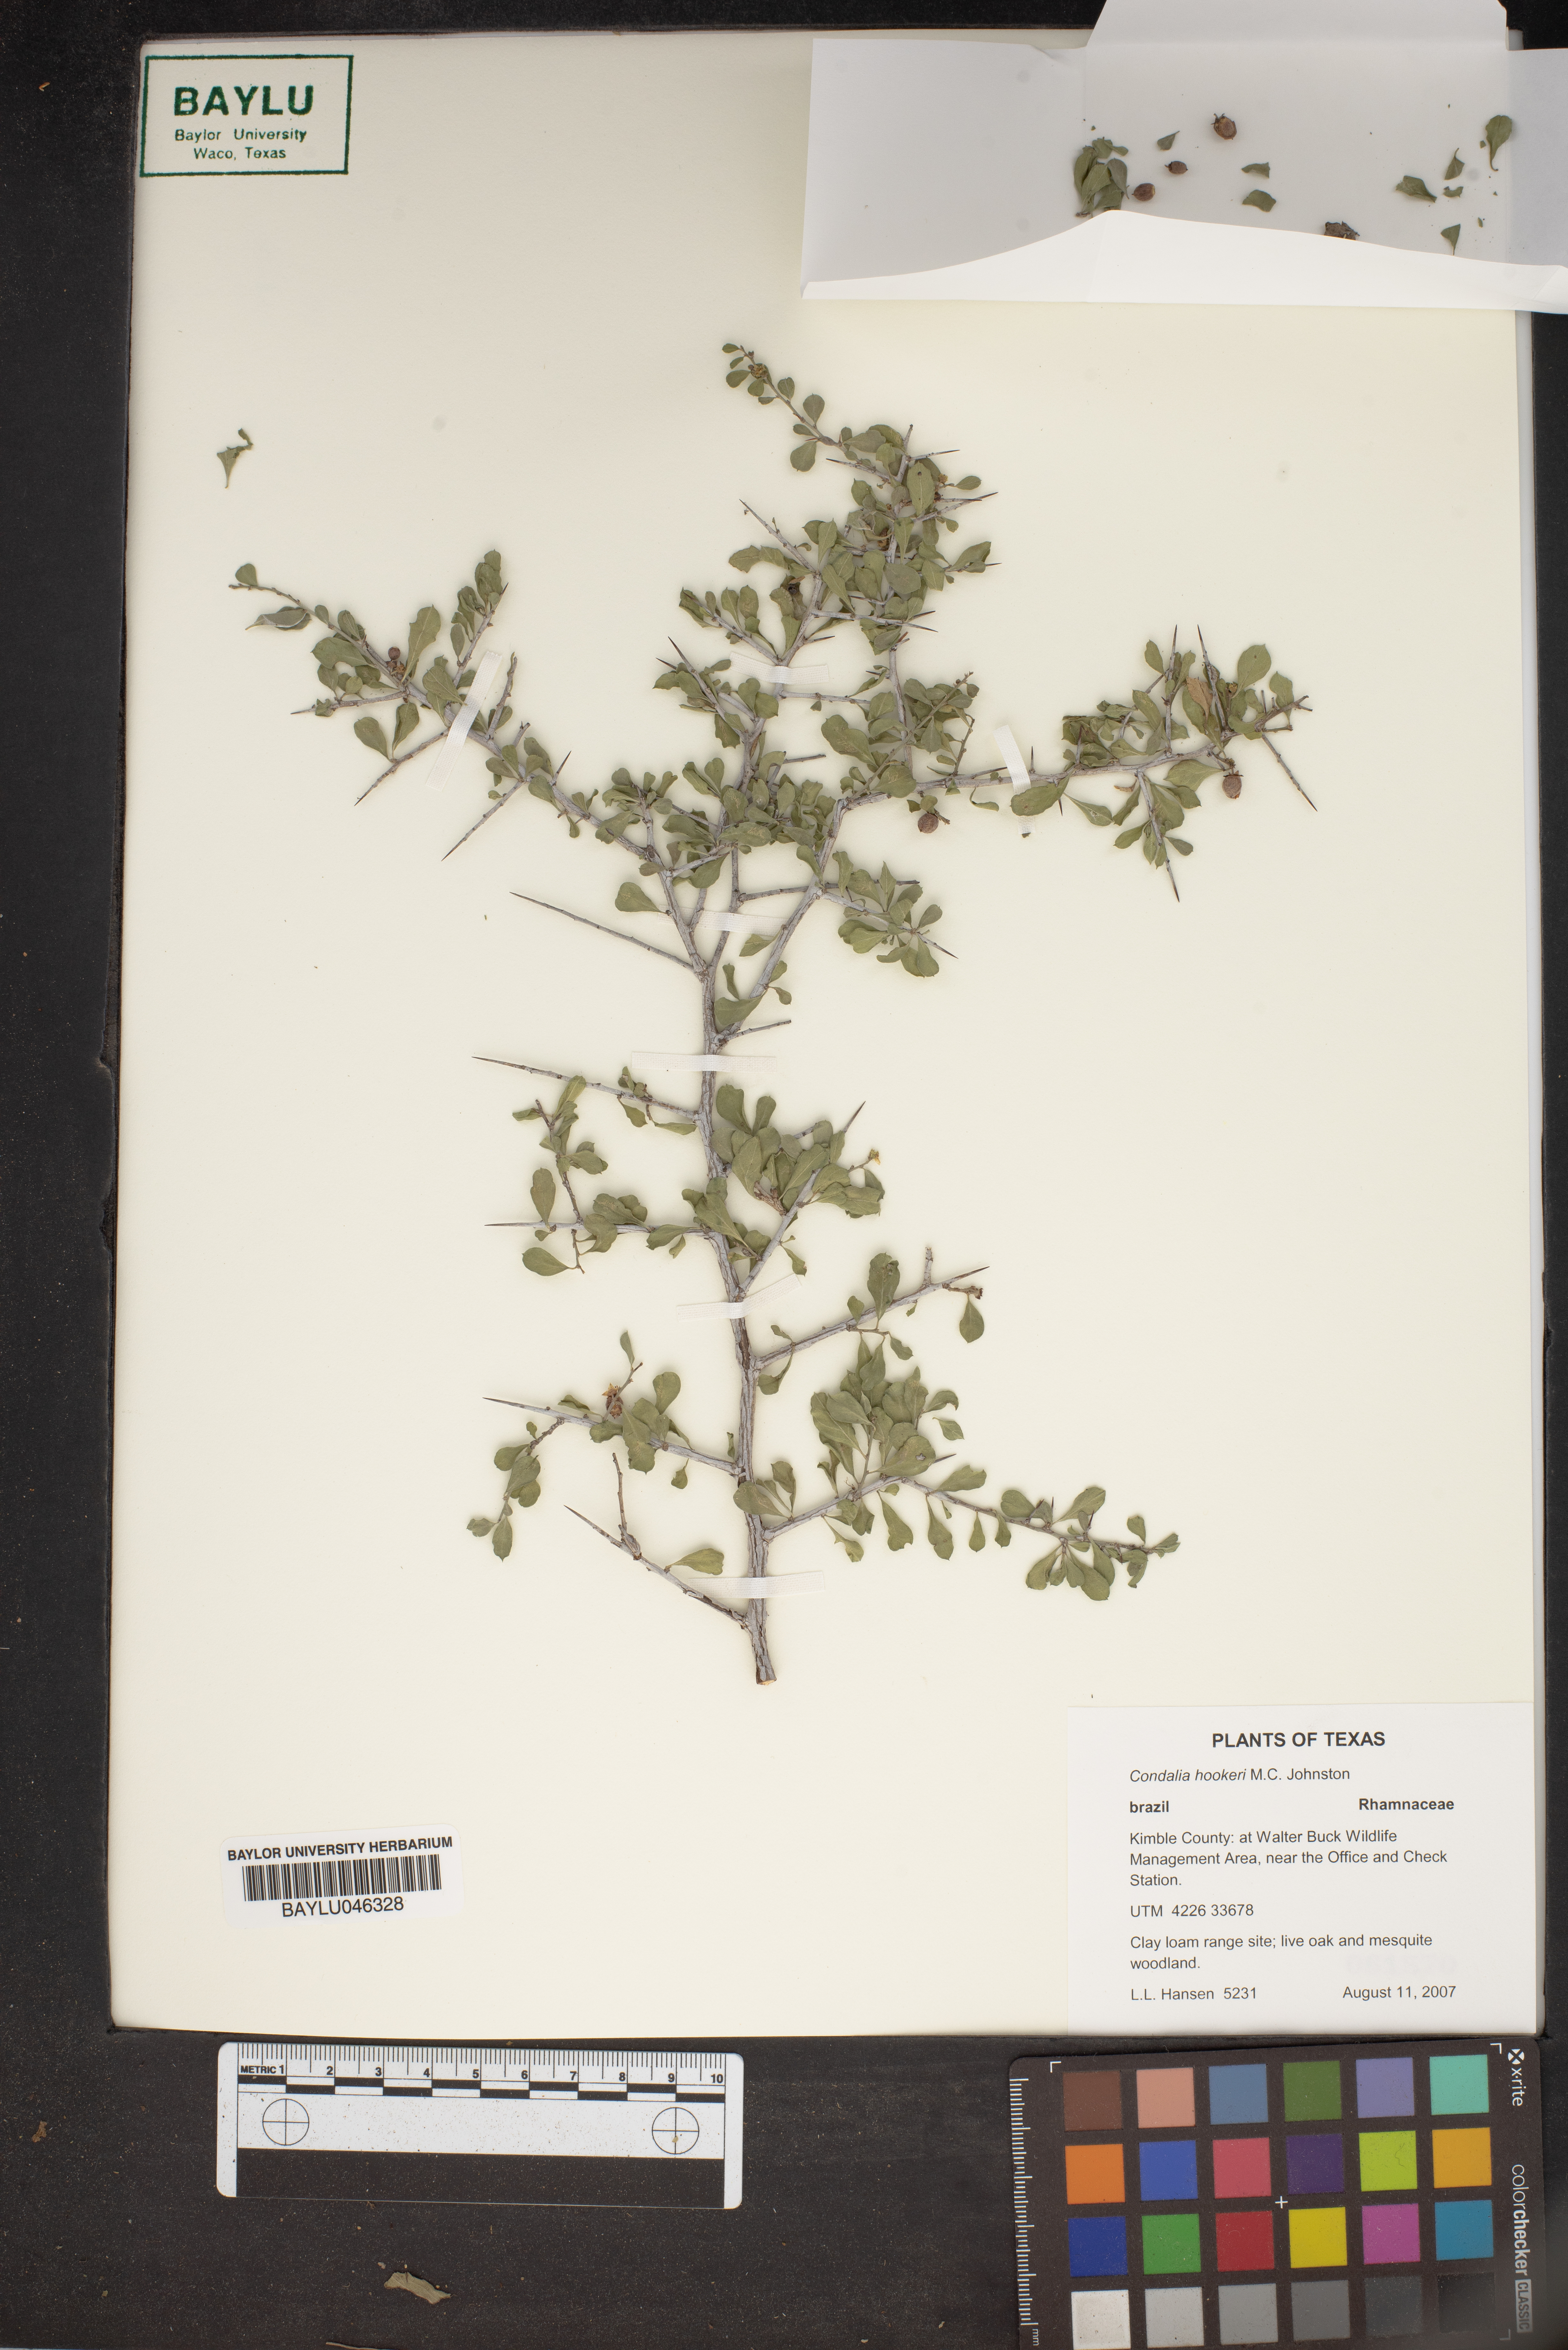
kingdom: Plantae
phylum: Tracheophyta
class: Magnoliopsida
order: Rosales
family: Rhamnaceae
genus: Condalia
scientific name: Condalia hookeri
